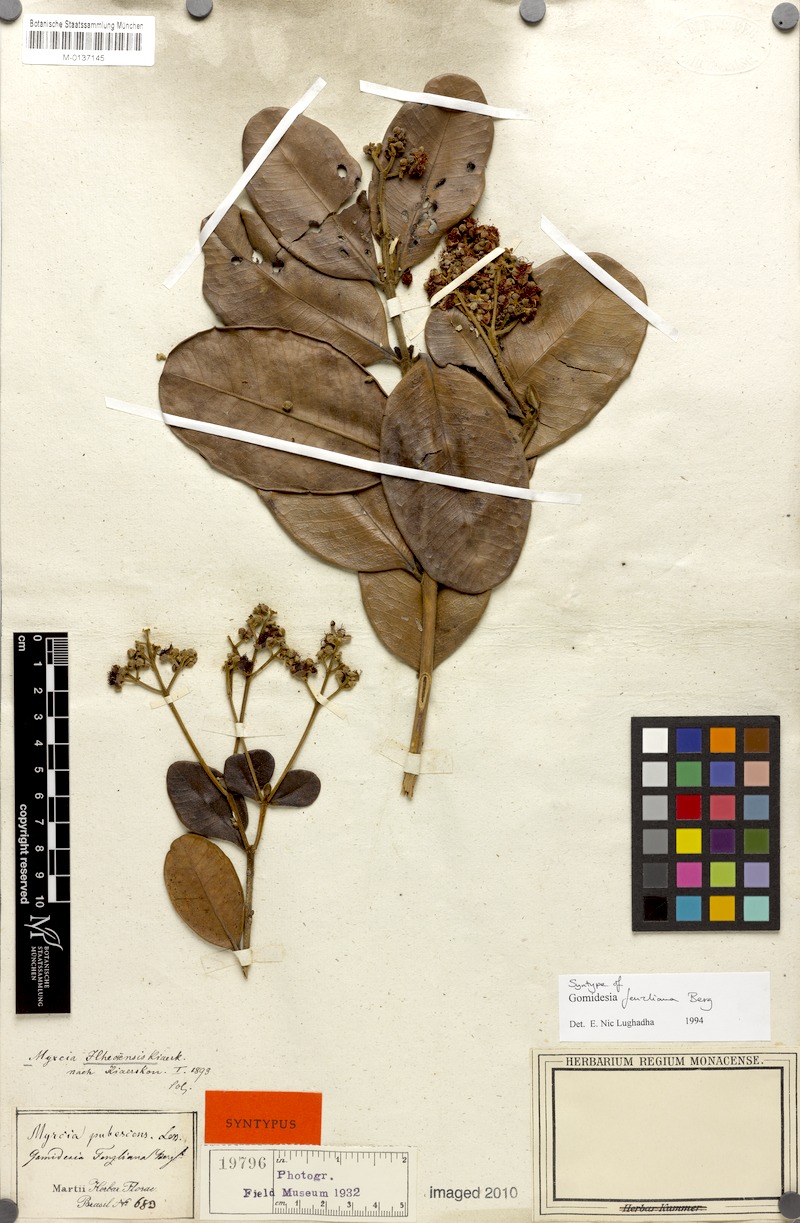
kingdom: Plantae
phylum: Tracheophyta
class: Magnoliopsida
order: Myrtales
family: Myrtaceae
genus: Myrcia
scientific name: Myrcia ilheosensis
